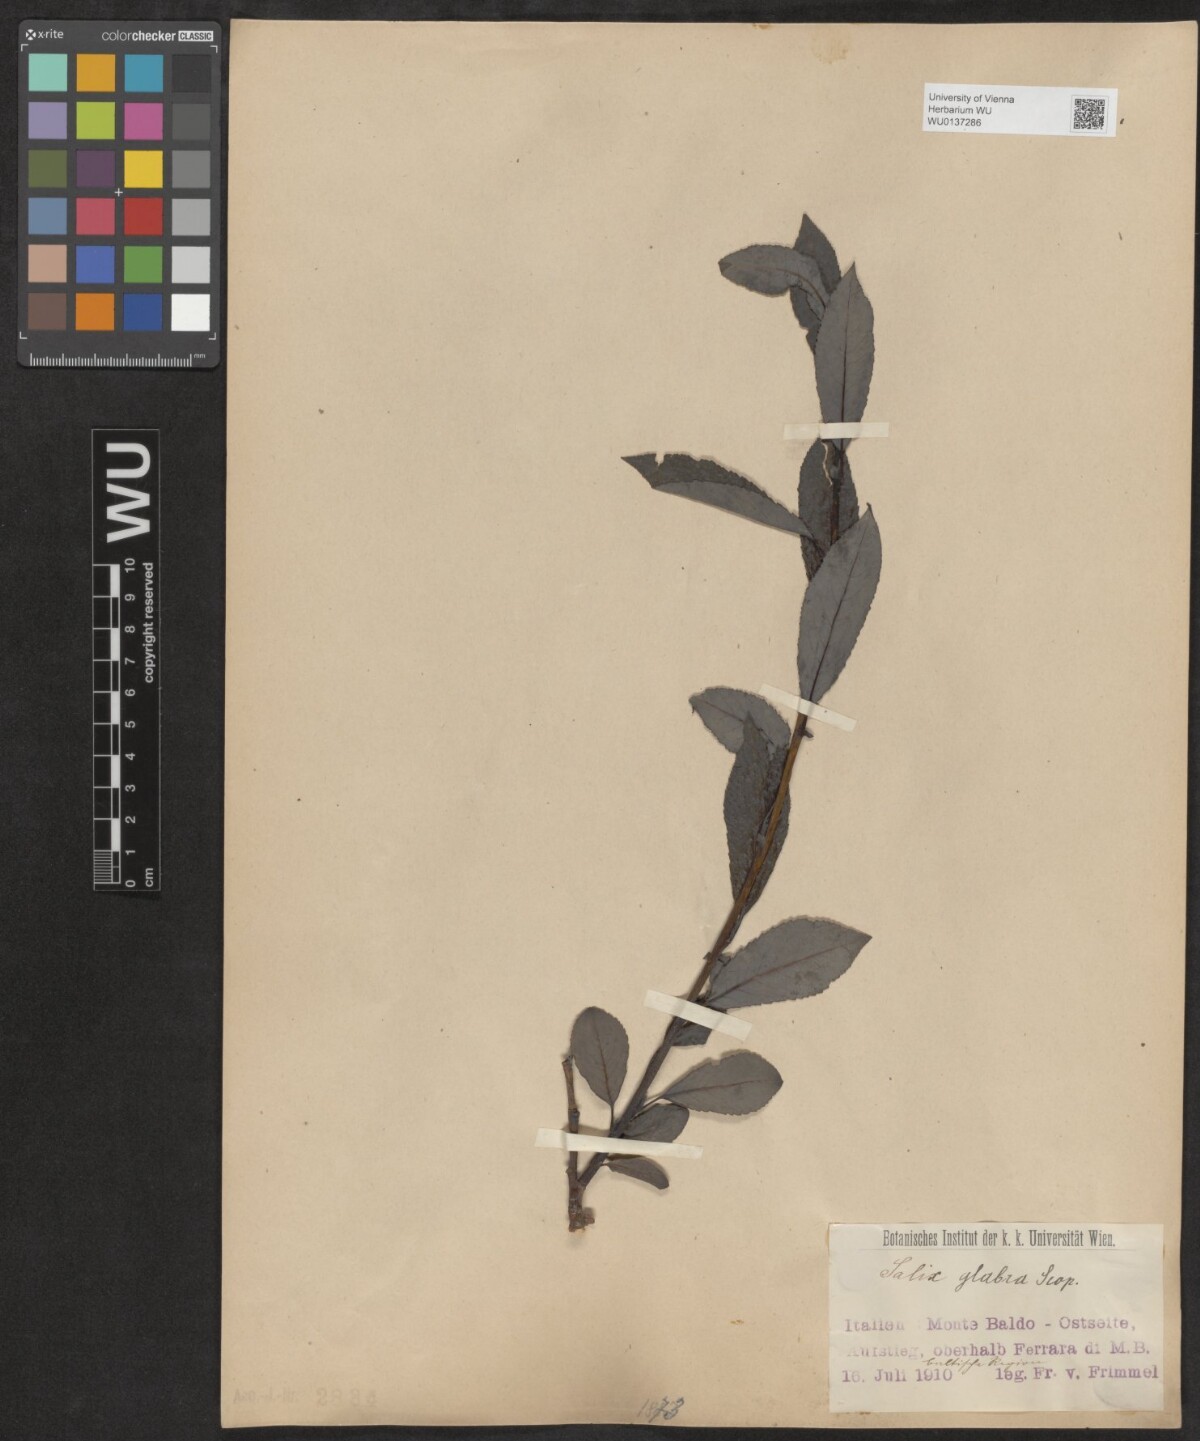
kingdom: Plantae
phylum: Tracheophyta
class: Magnoliopsida
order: Malpighiales
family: Salicaceae
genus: Salix
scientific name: Salix glabra
